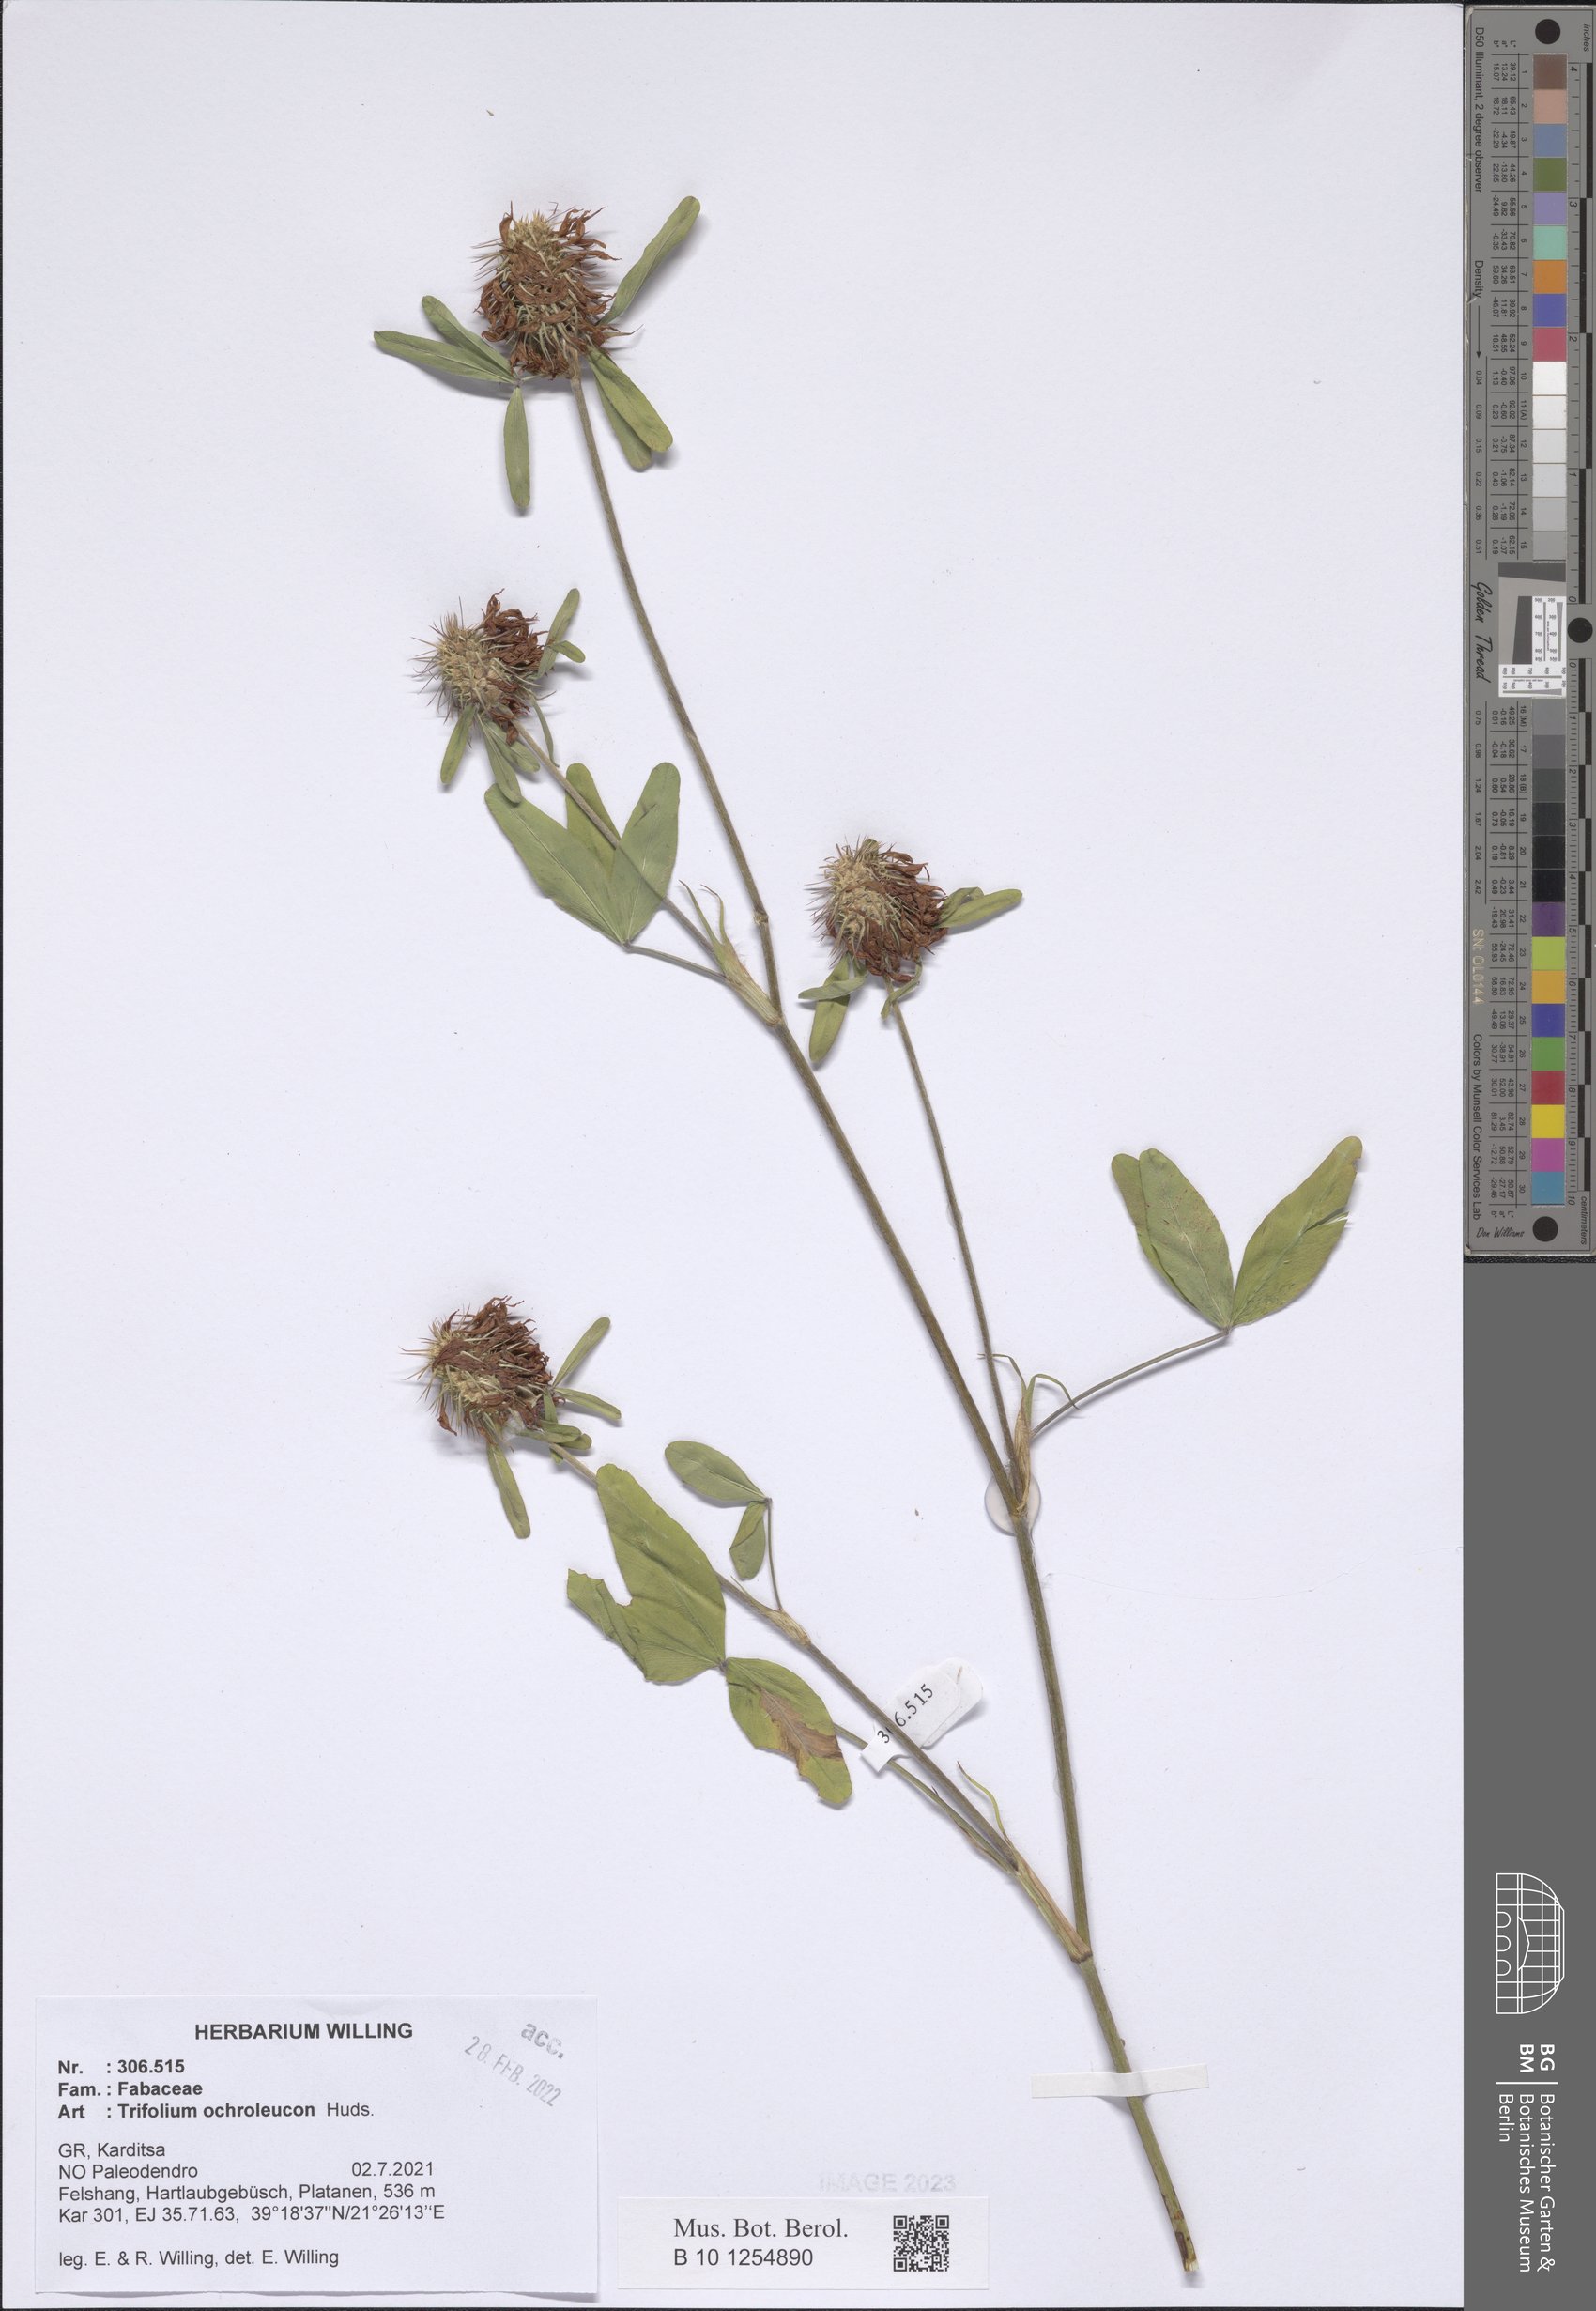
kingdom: Plantae
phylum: Tracheophyta
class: Magnoliopsida
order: Fabales
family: Fabaceae
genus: Trifolium
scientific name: Trifolium ochroleucon
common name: Sulphur clover
